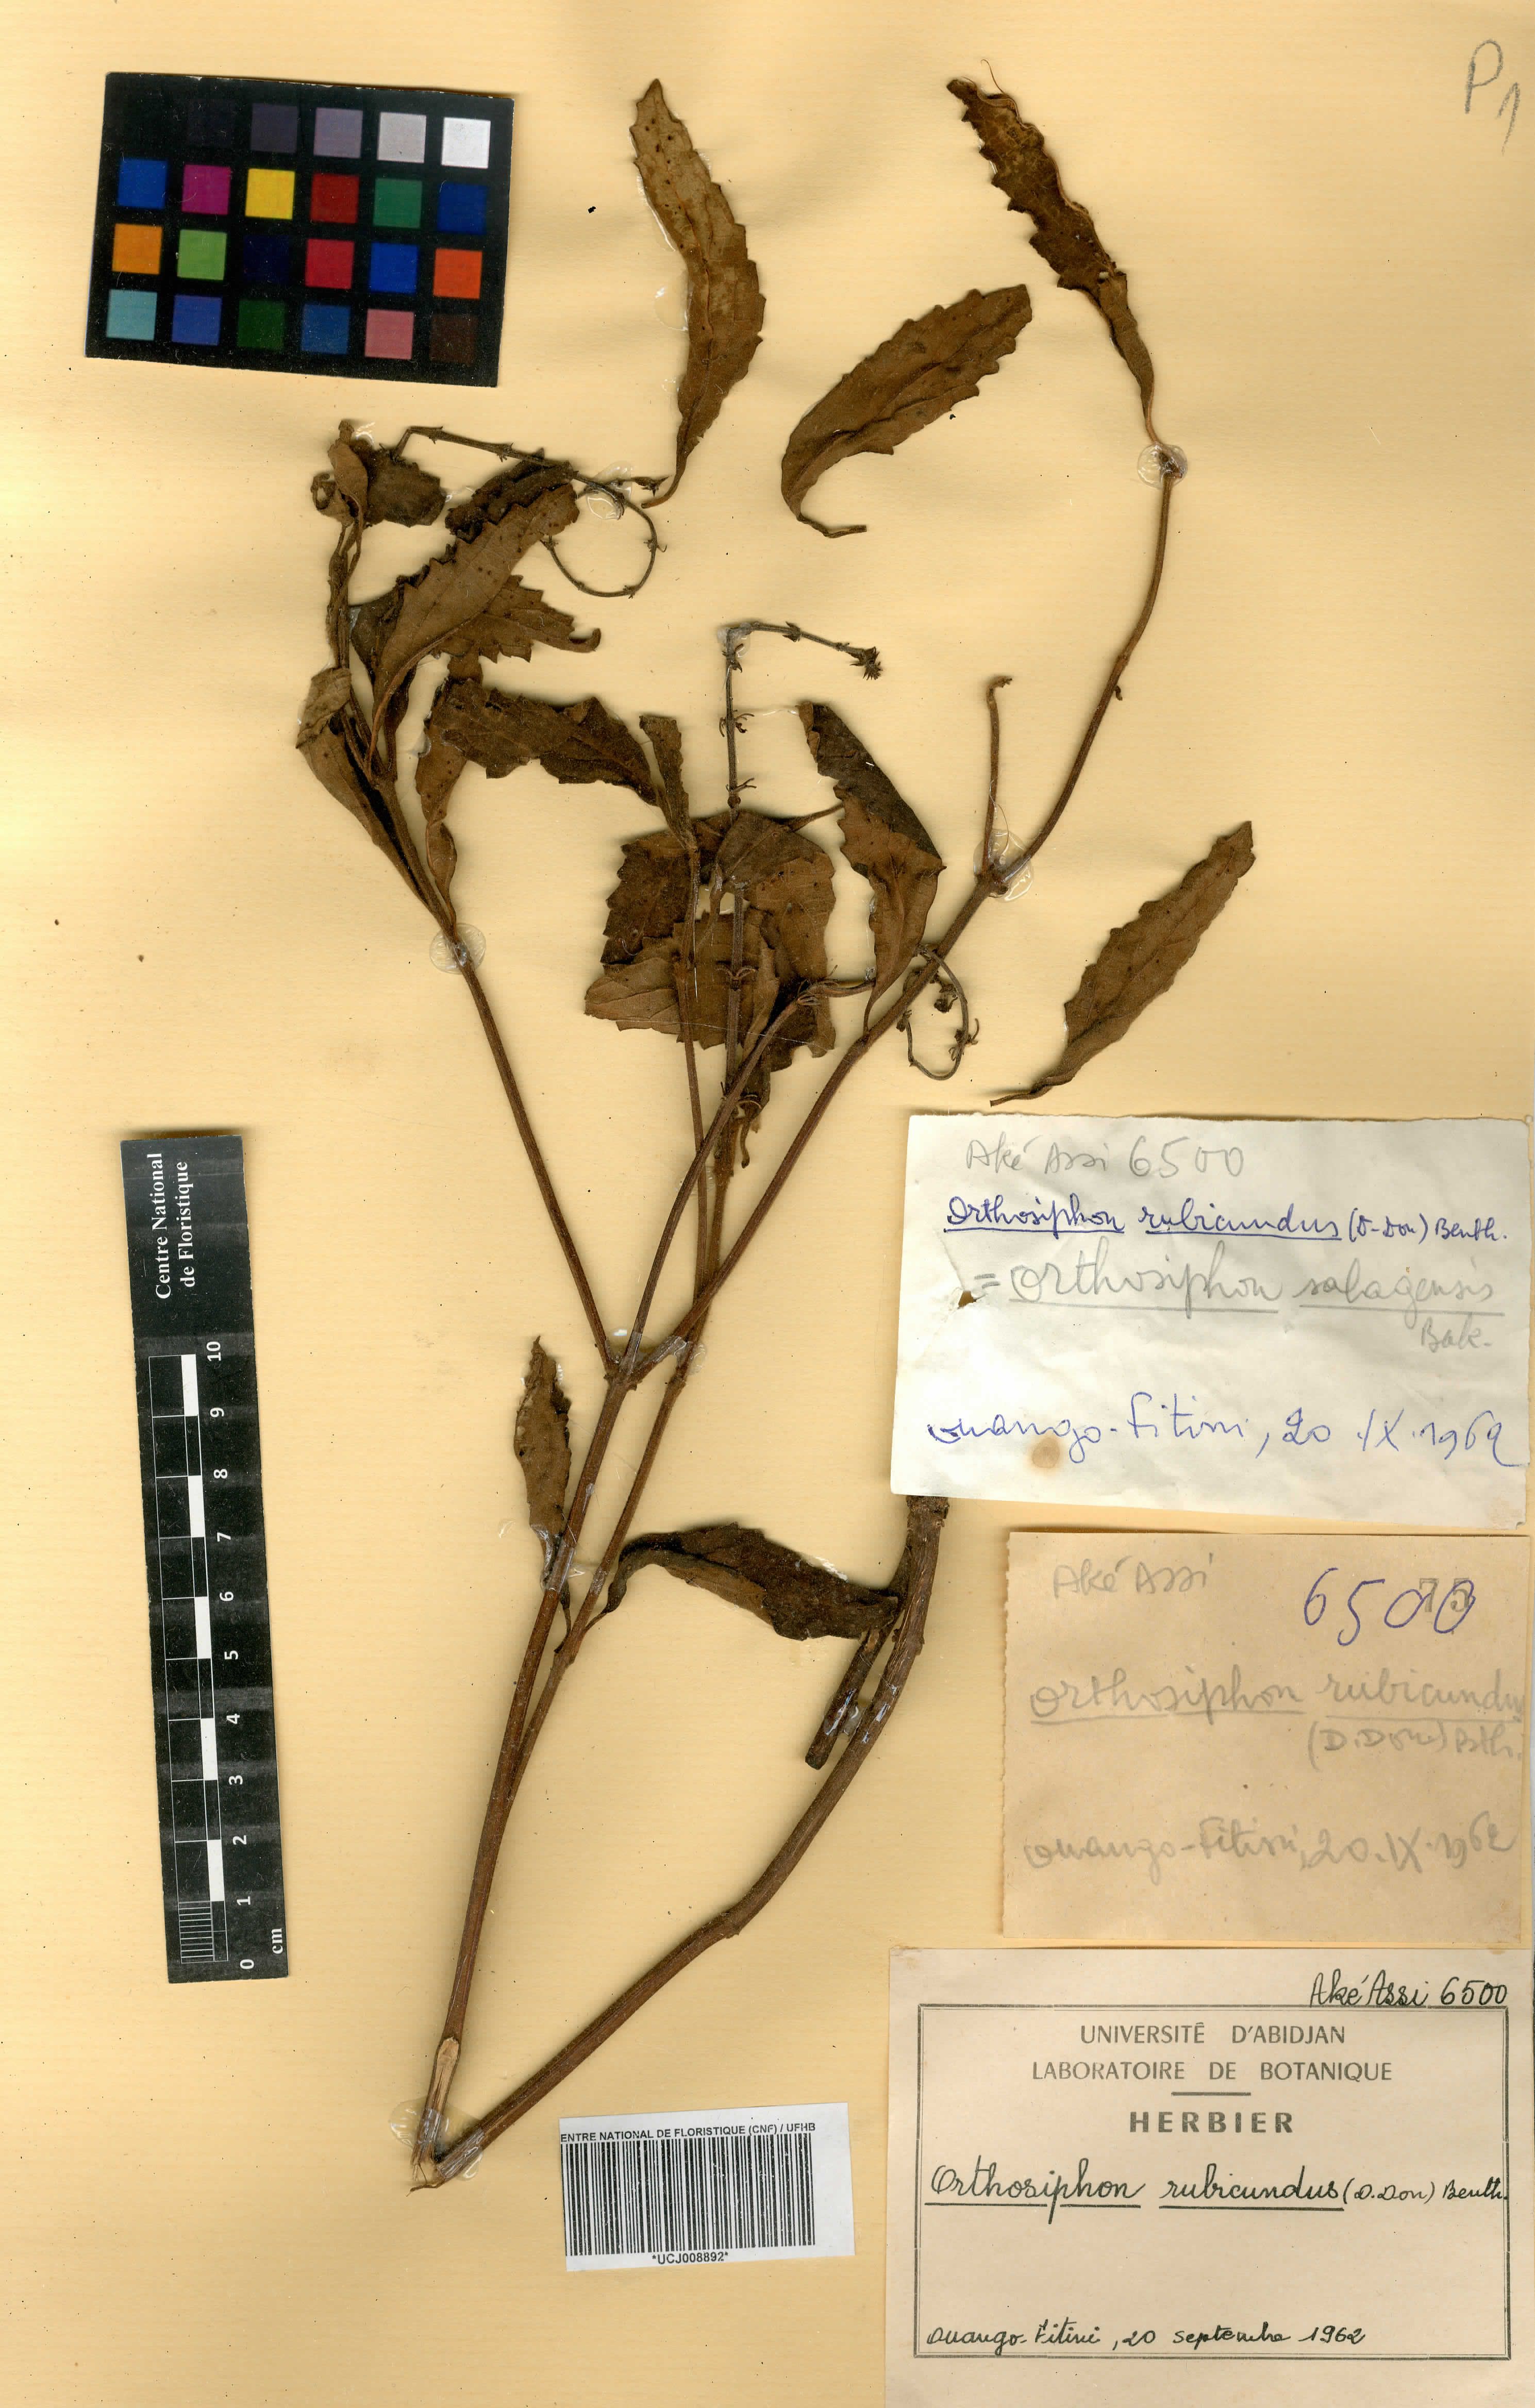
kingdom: Plantae
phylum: Tracheophyta
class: Magnoliopsida
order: Lamiales
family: Lamiaceae
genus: Orthosiphon
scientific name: Orthosiphon rubicundus
